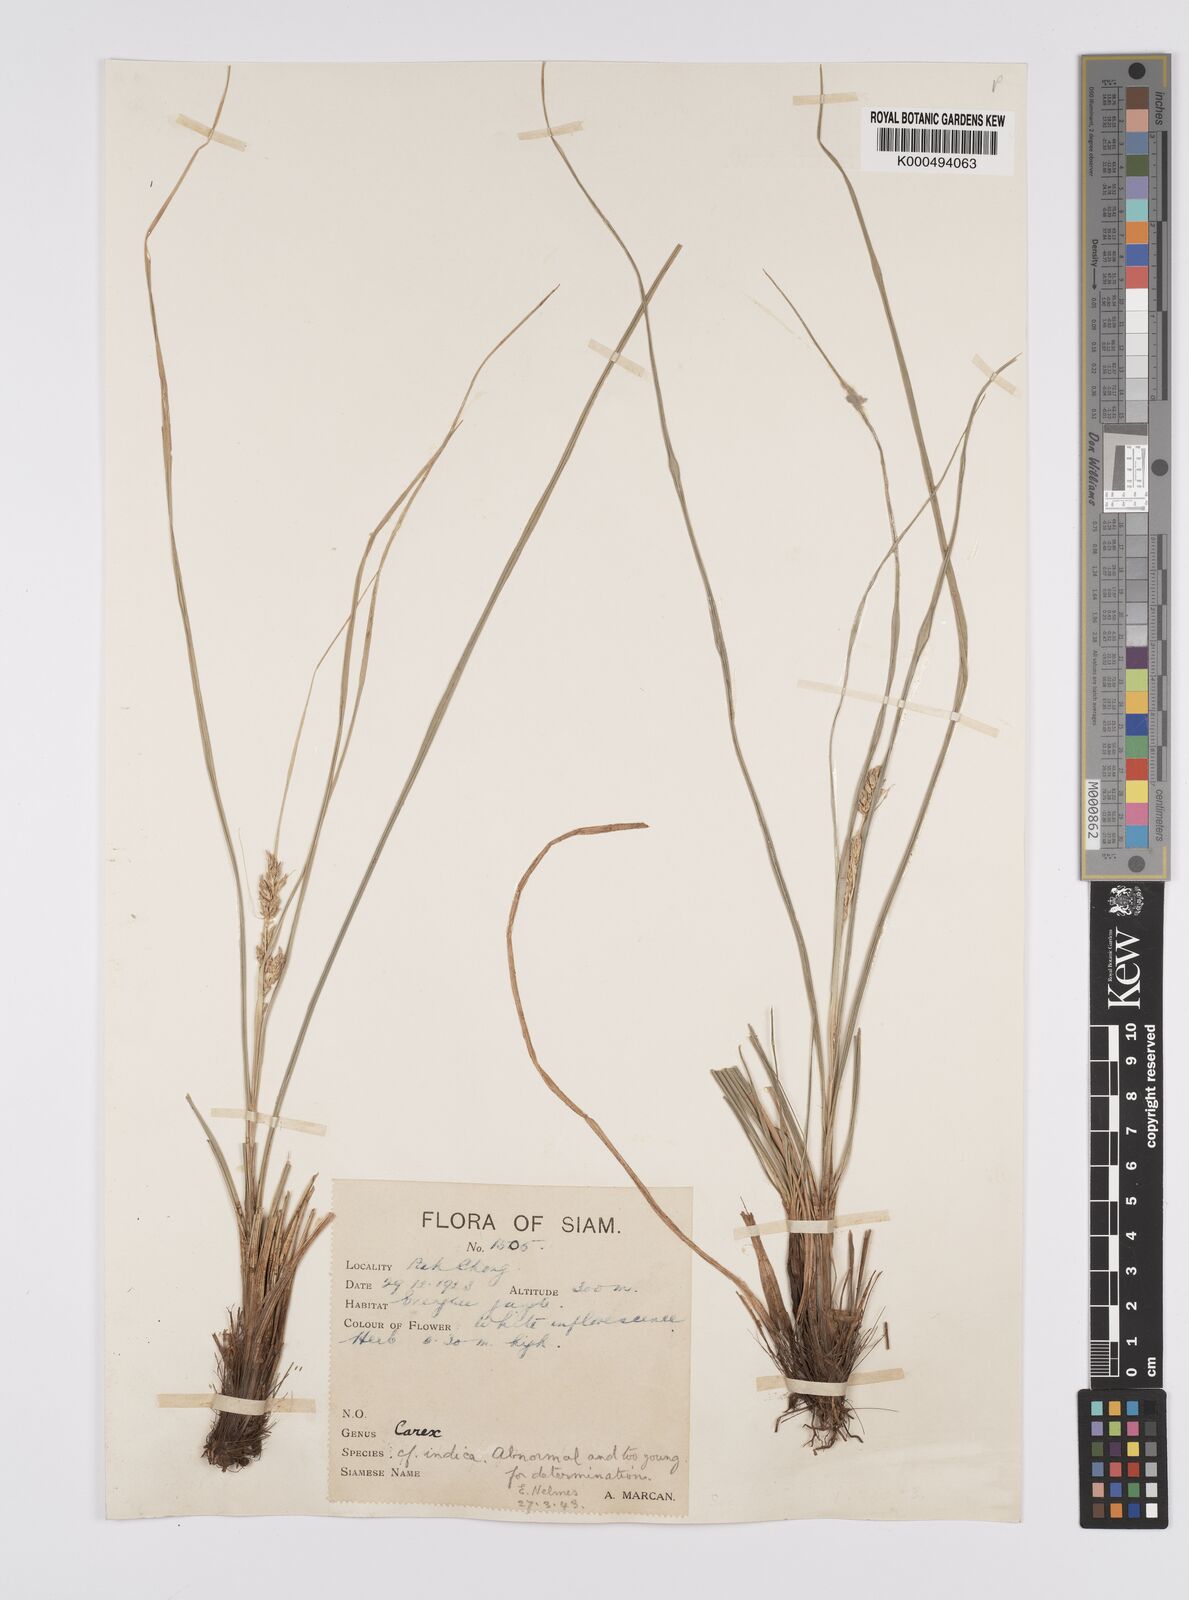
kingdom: Plantae
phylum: Tracheophyta
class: Liliopsida
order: Poales
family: Cyperaceae
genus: Carex
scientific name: Carex indica
